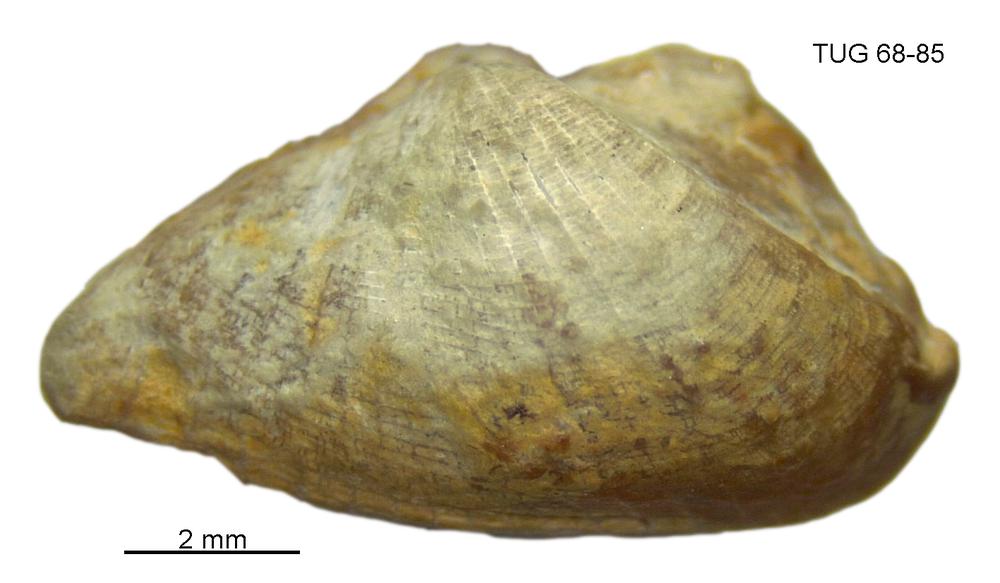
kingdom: Animalia
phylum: Mollusca
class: Rostroconchia
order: Conocardiida
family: Bransoniidae
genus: Mulceodens
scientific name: Mulceodens jaanussoni
